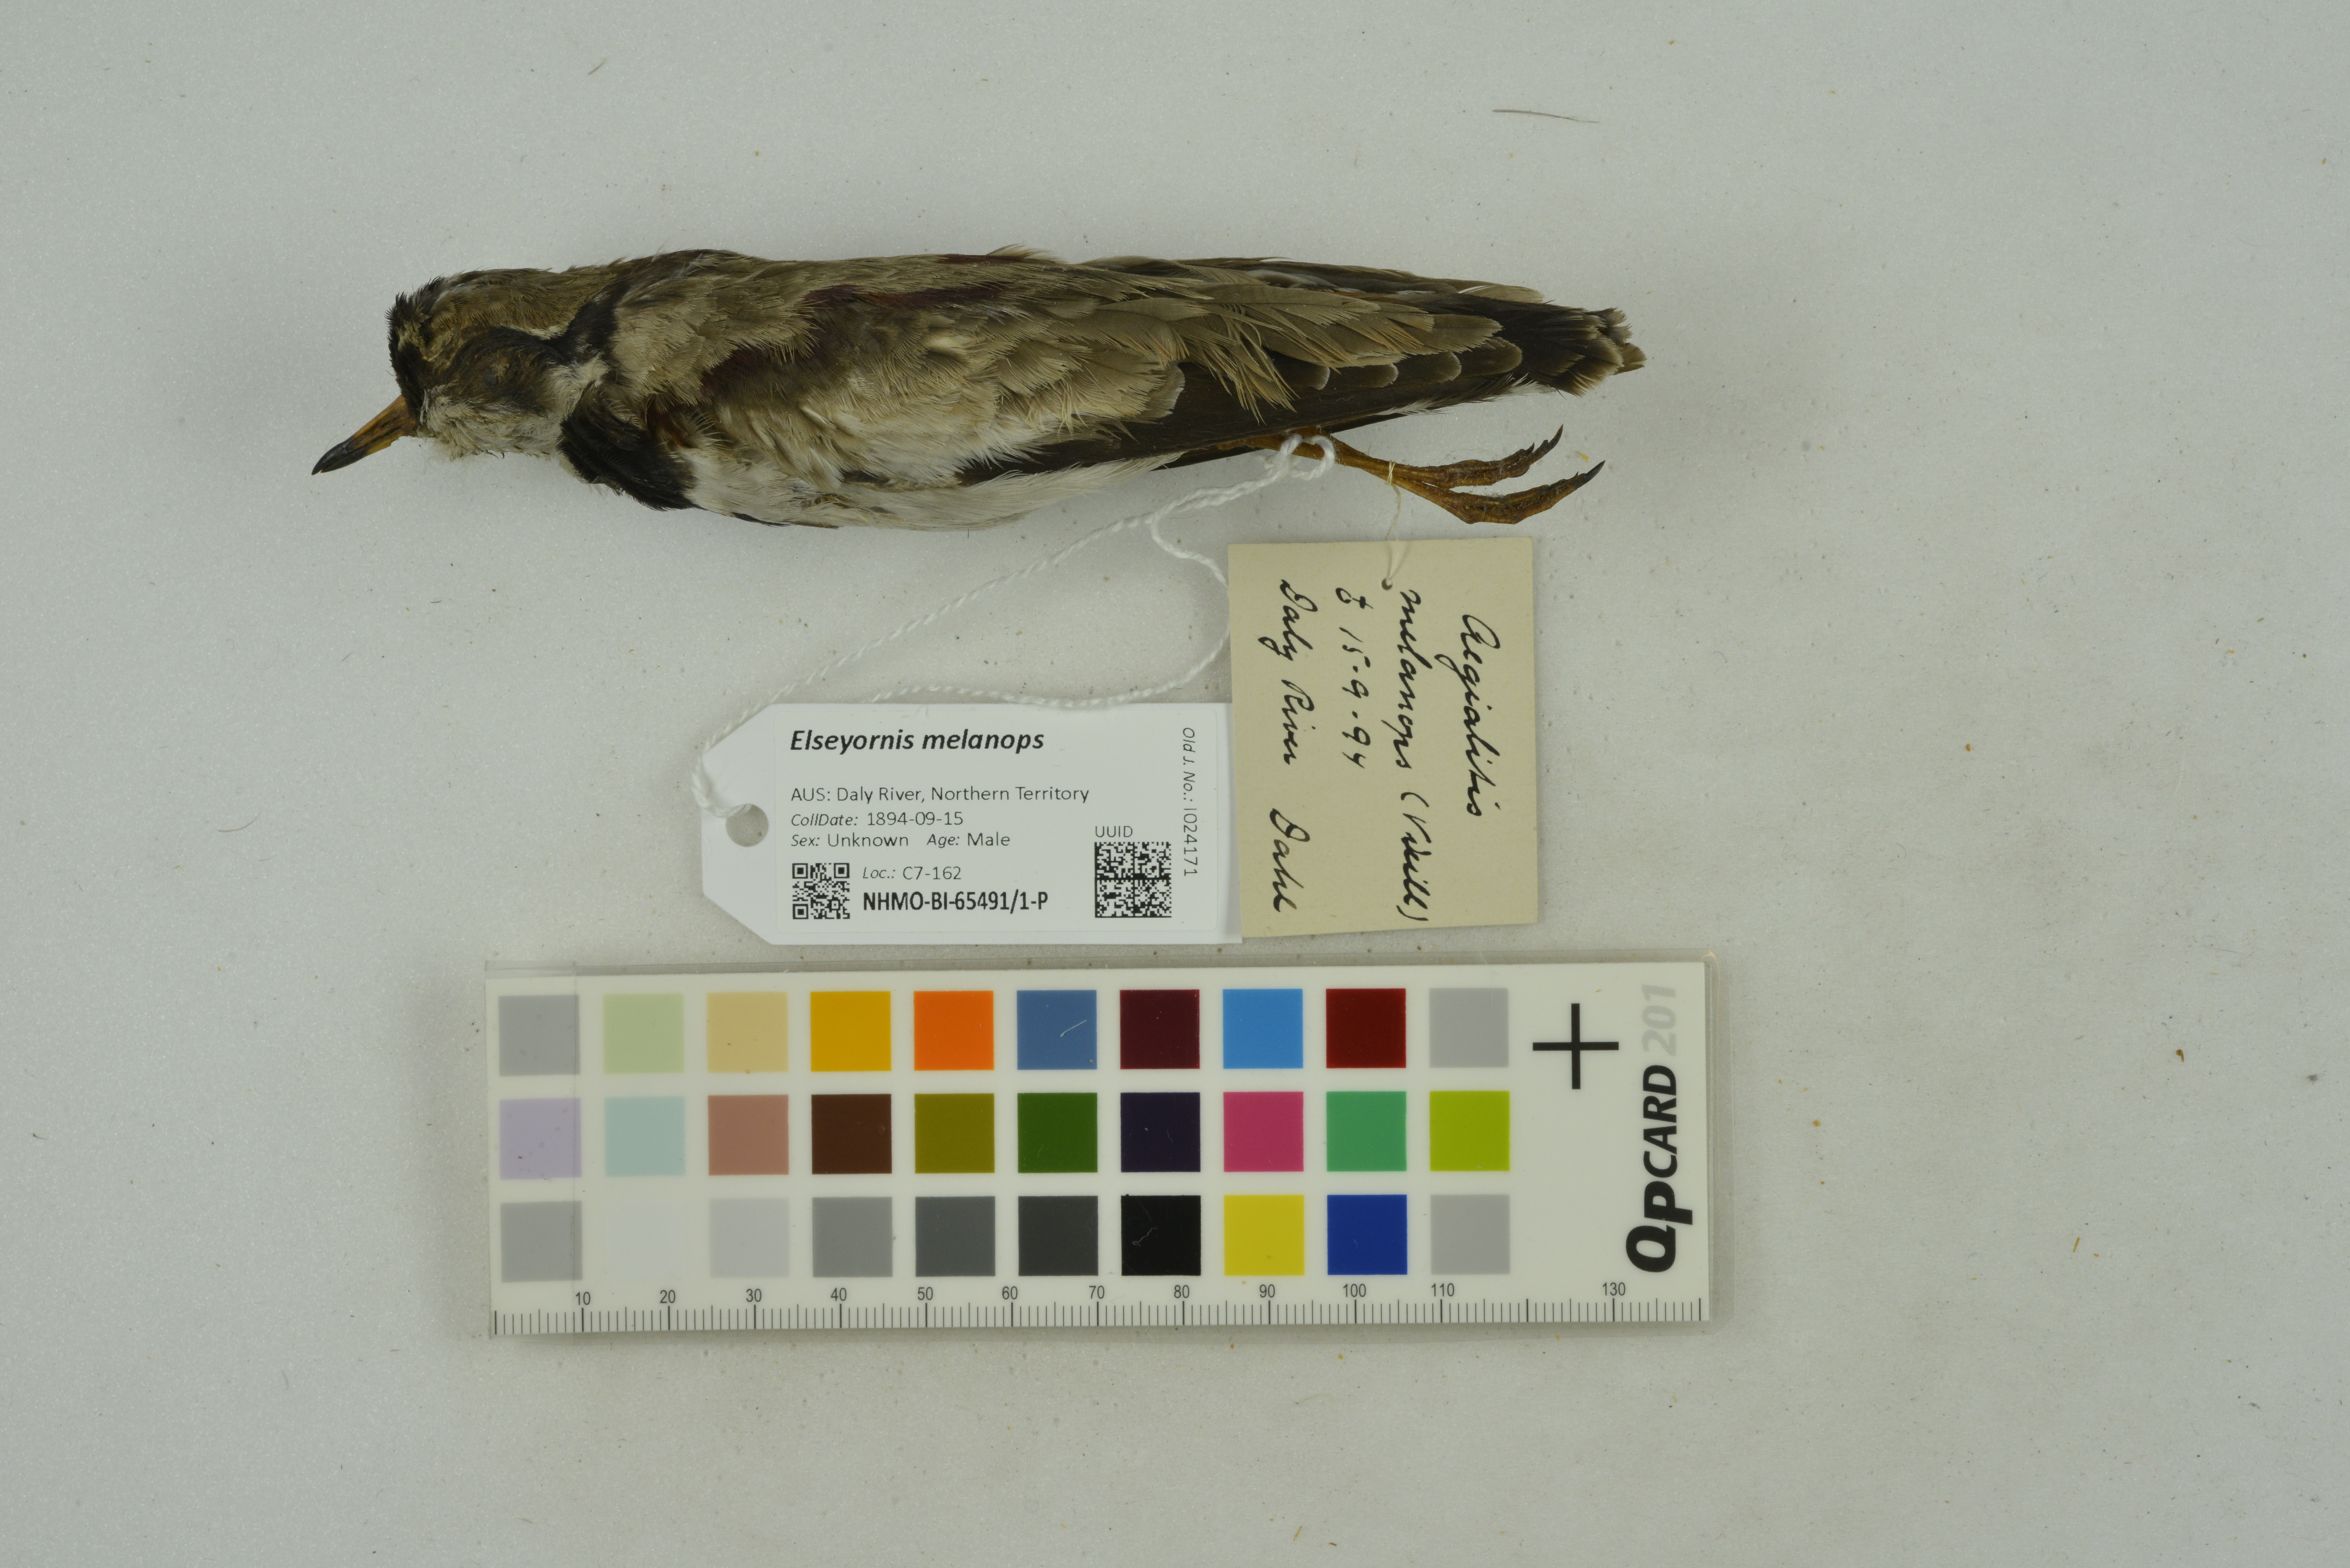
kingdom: Animalia
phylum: Chordata
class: Aves
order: Charadriiformes
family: Charadriidae
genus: Elseyornis
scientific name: Elseyornis melanops
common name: Black-fronted dotterel
